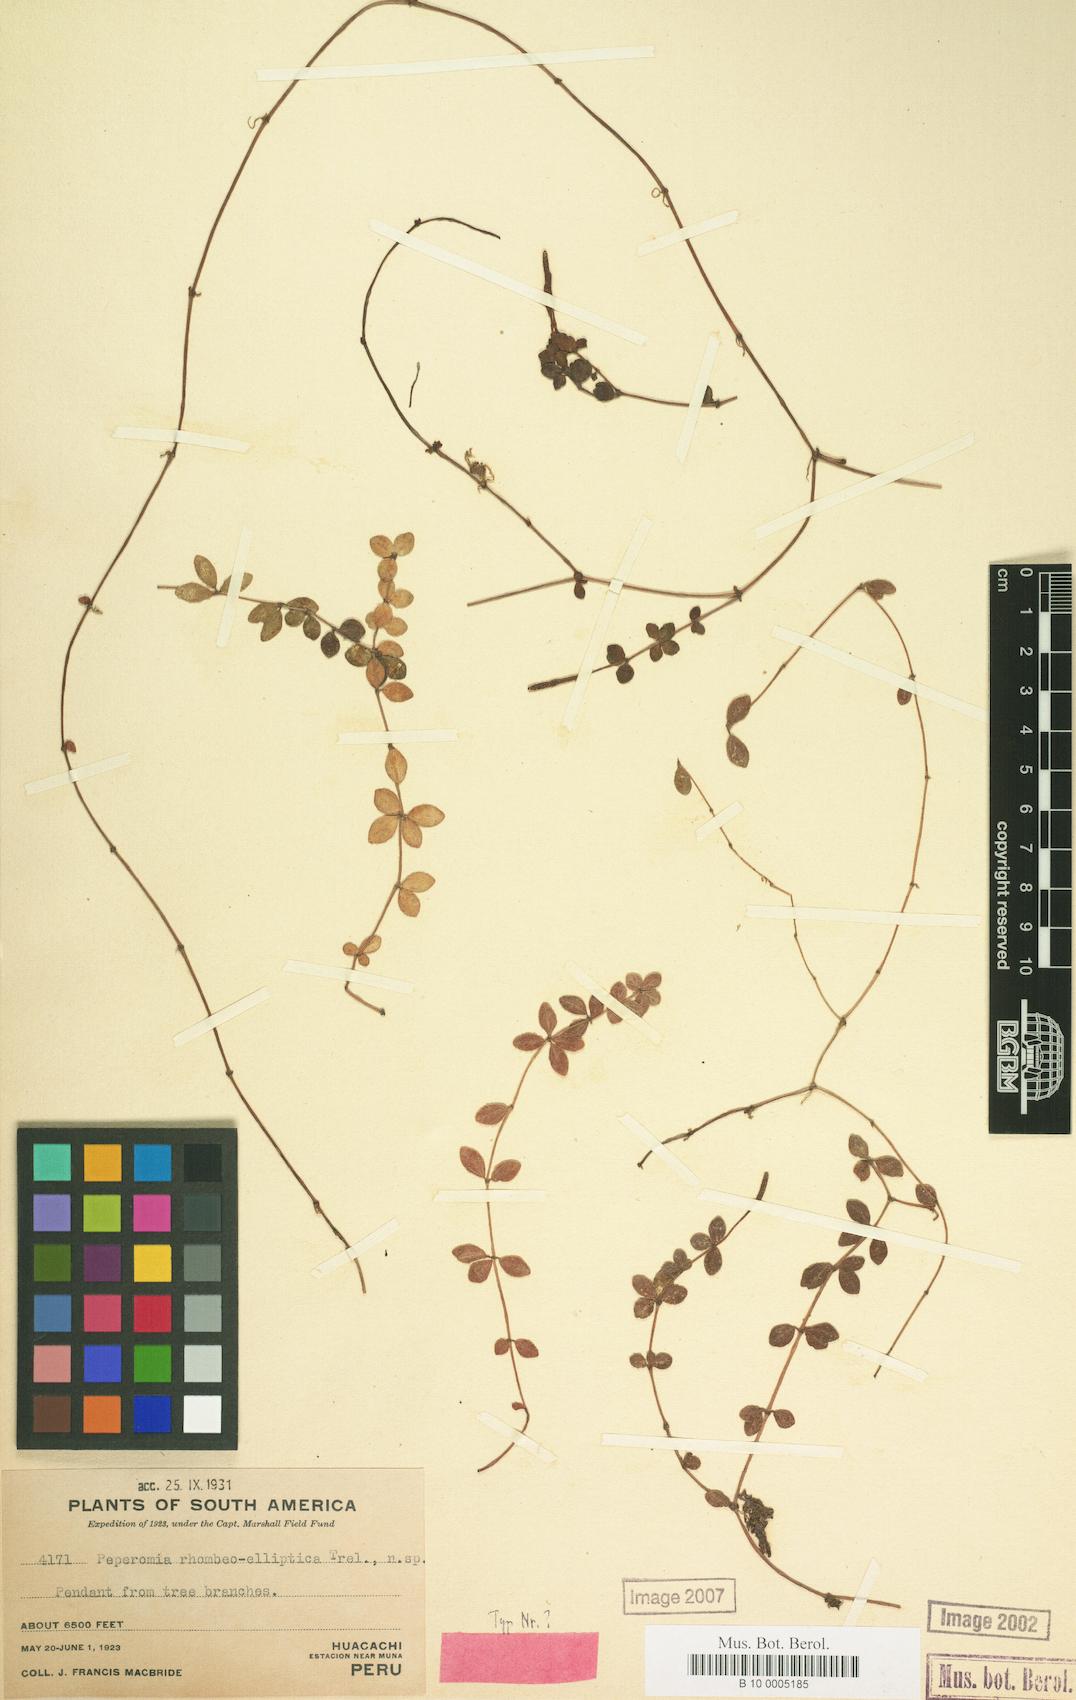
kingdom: Plantae
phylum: Tracheophyta
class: Magnoliopsida
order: Piperales
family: Piperaceae
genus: Peperomia
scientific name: Peperomia rhombeoelliptica
